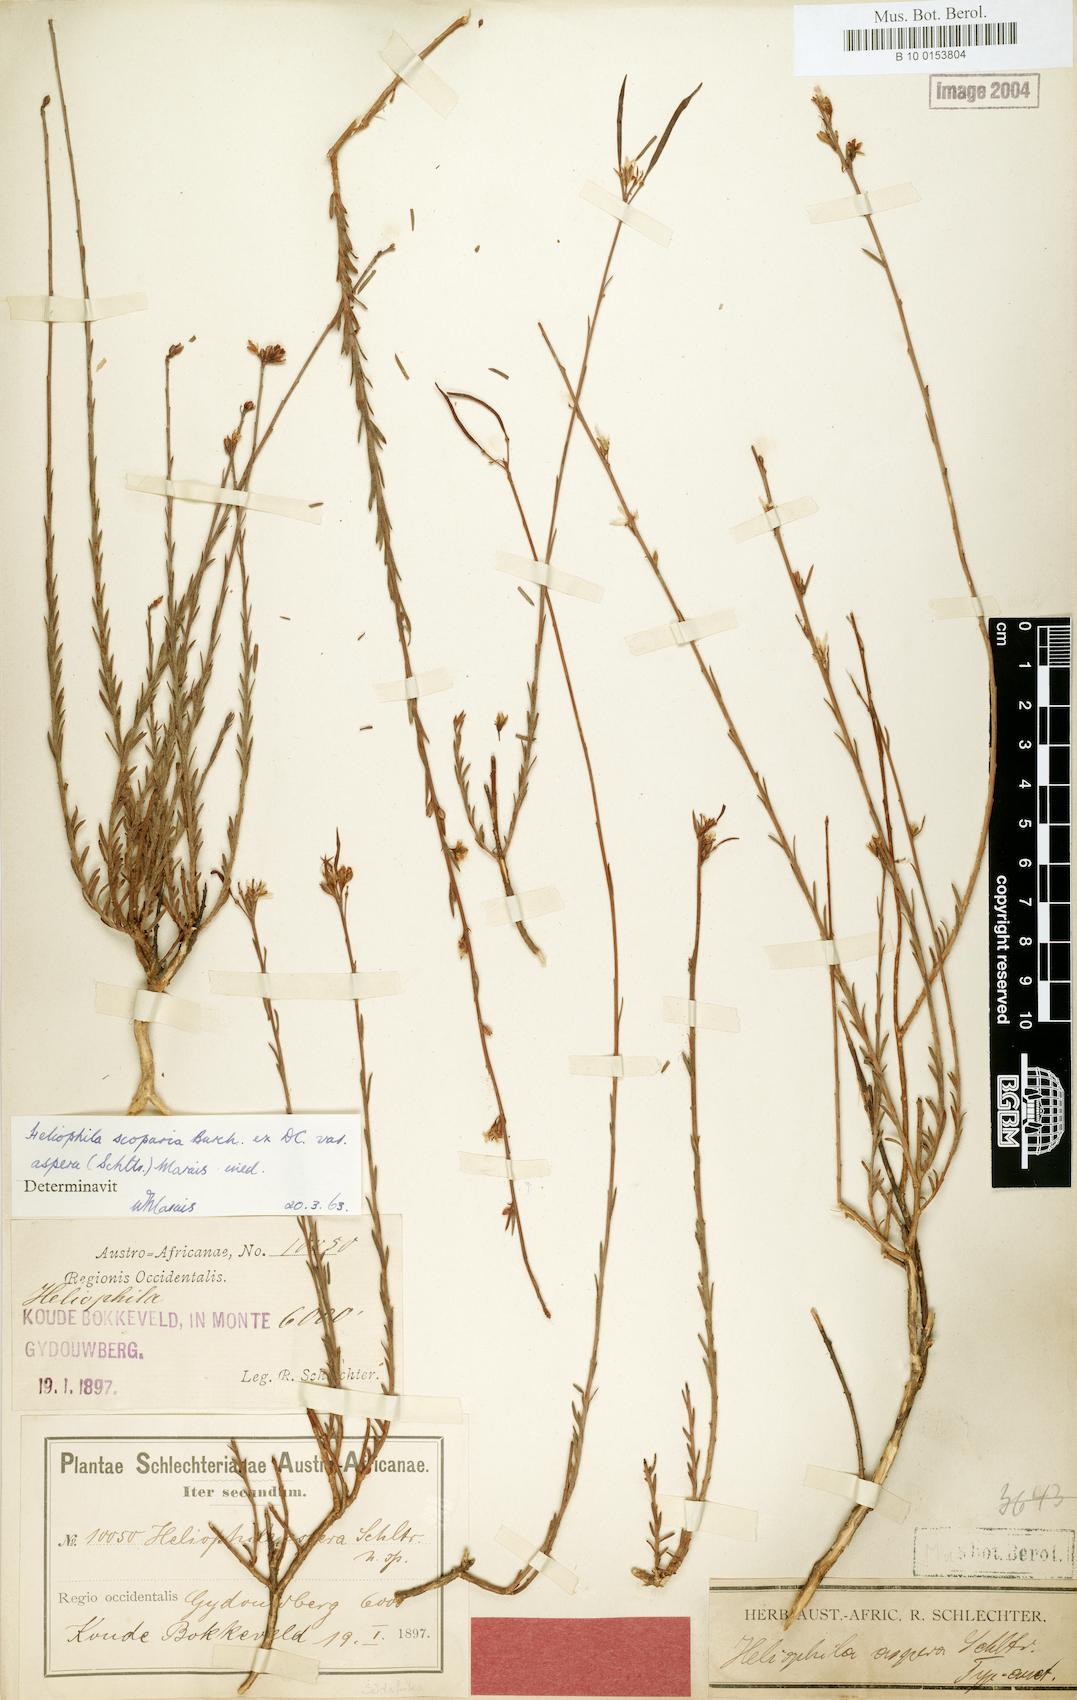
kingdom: Plantae
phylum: Tracheophyta
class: Magnoliopsida
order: Brassicales
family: Brassicaceae
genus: Heliophila
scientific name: Heliophila scoparia
